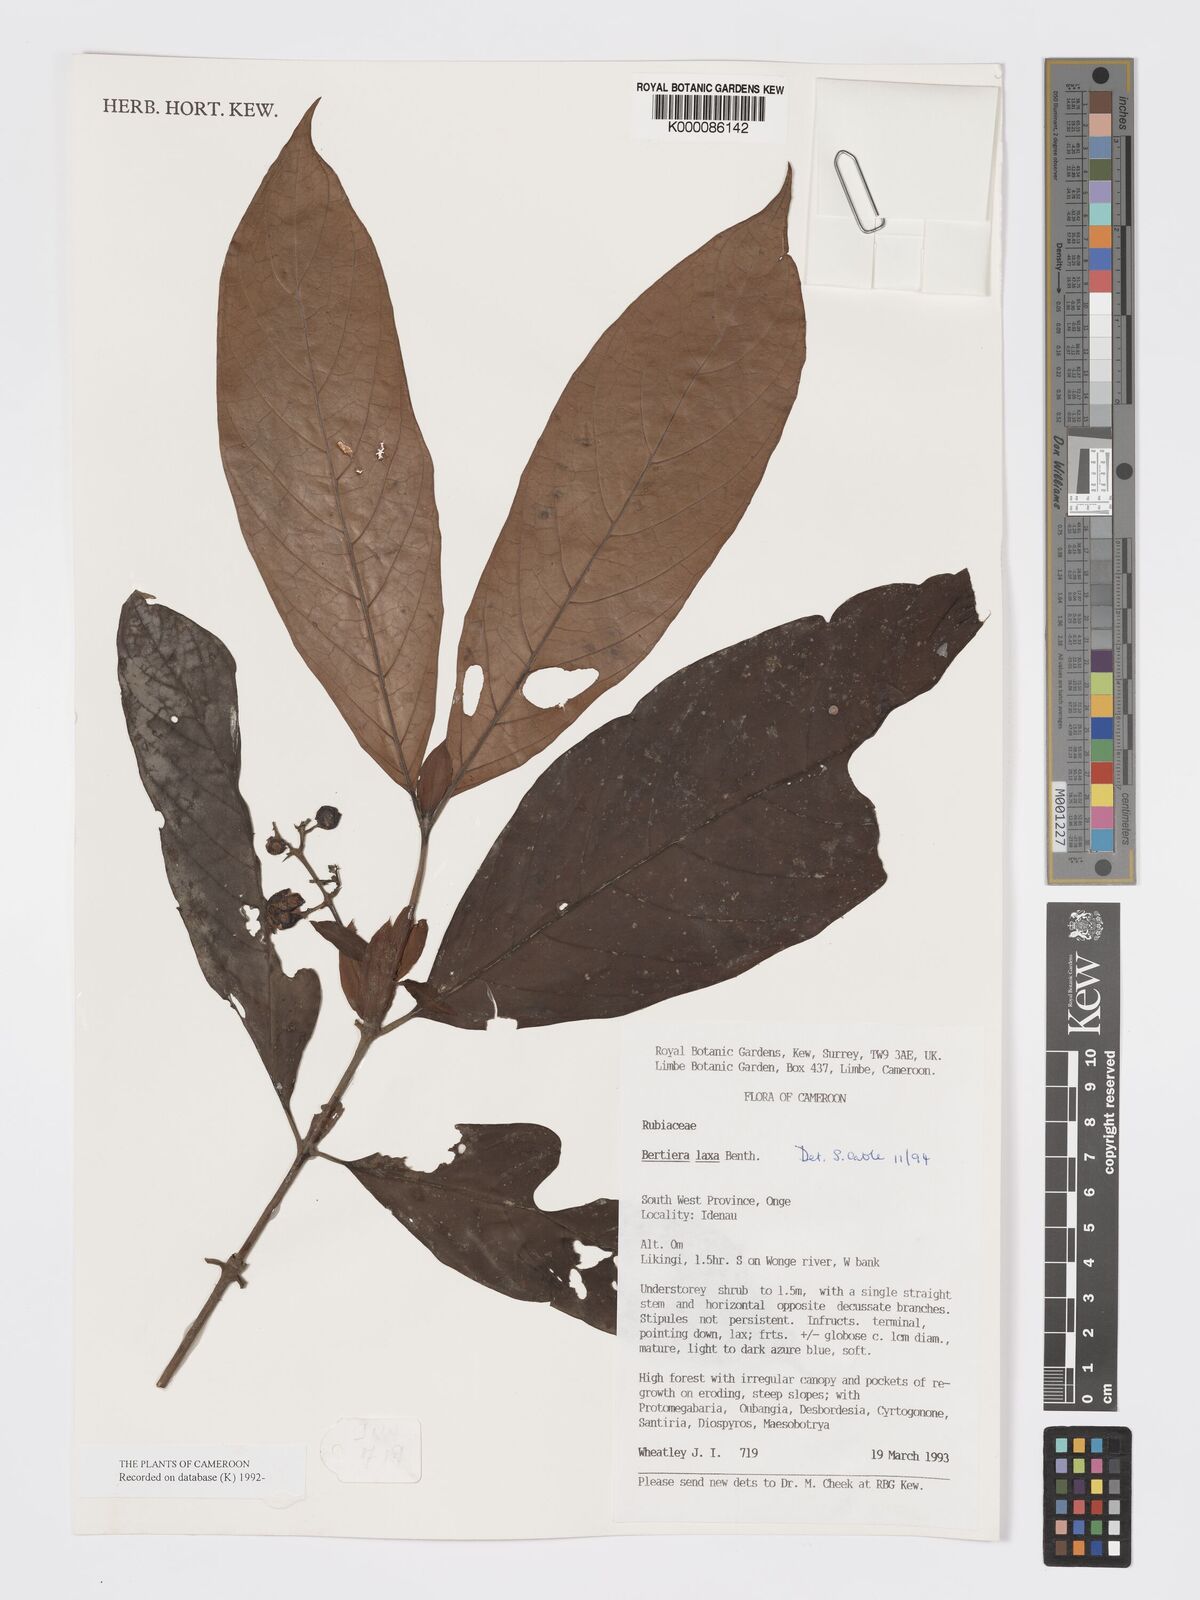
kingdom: Plantae
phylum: Tracheophyta
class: Magnoliopsida
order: Gentianales
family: Rubiaceae
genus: Bertiera
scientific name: Bertiera laxa
